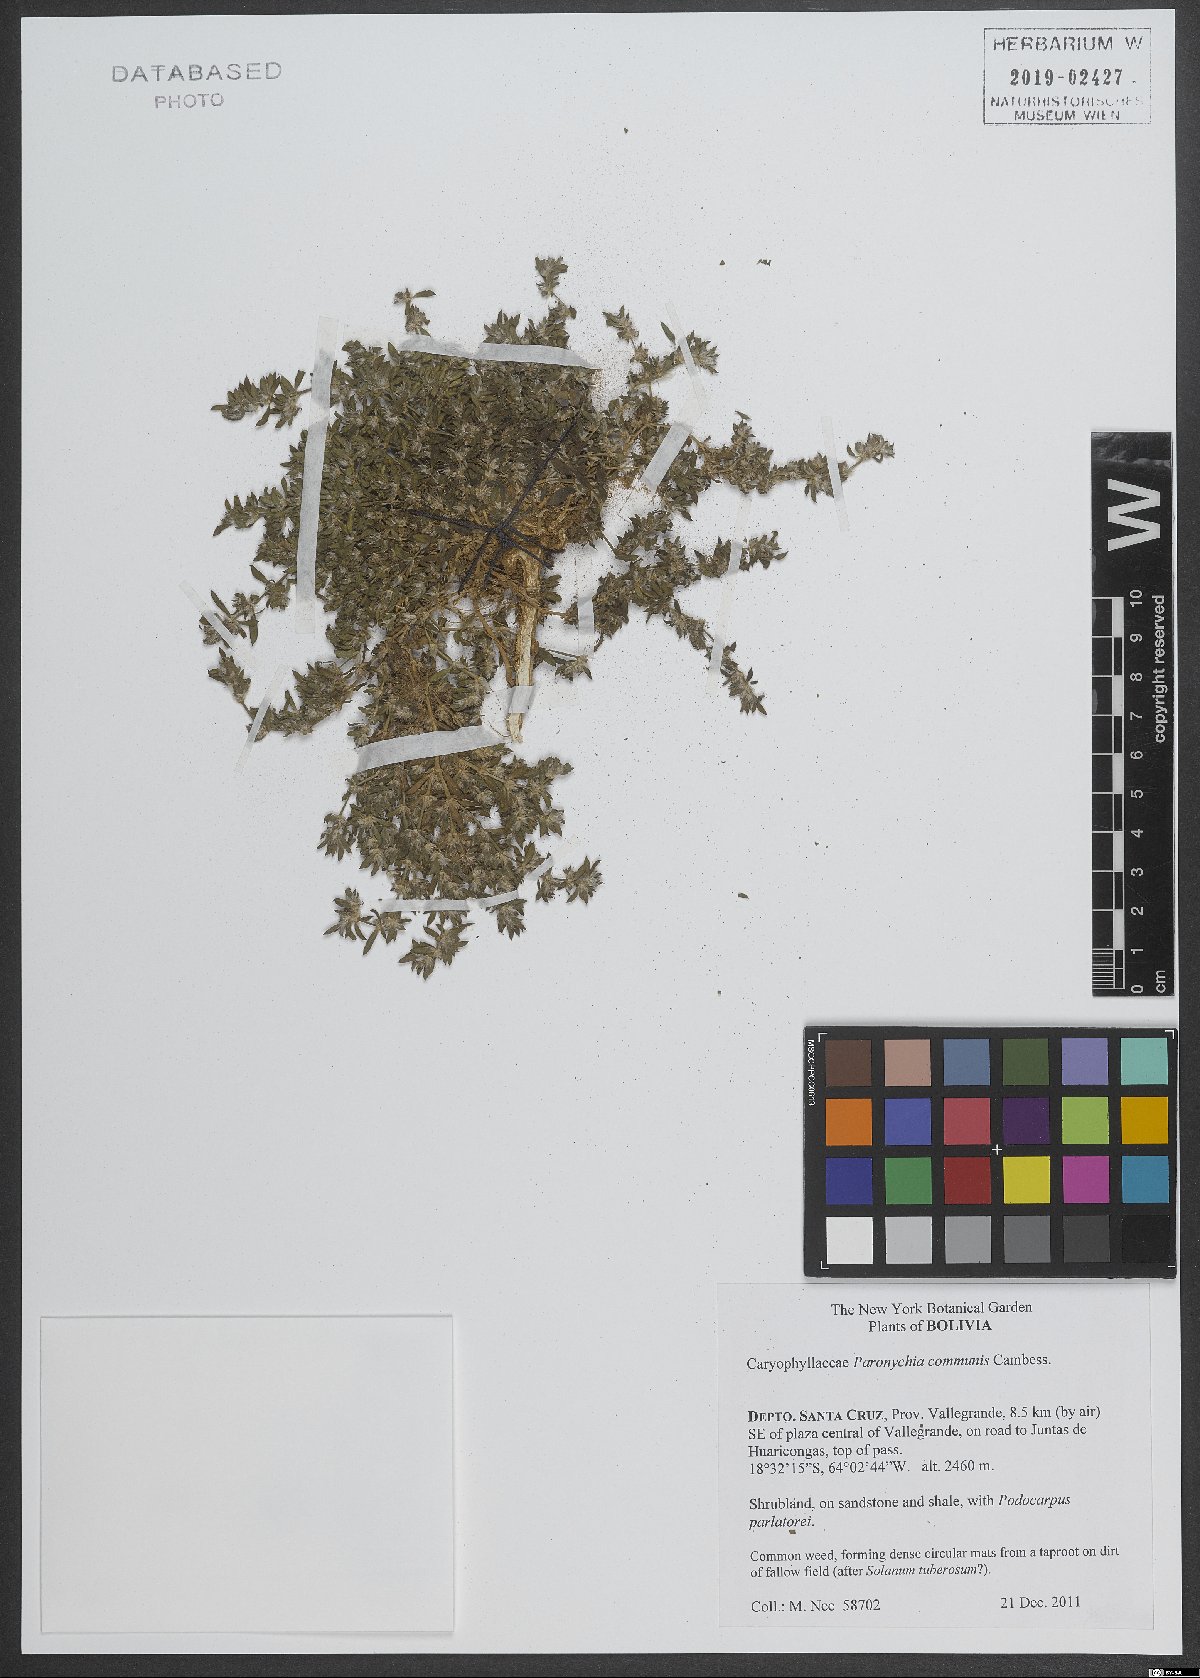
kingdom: Plantae
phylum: Tracheophyta
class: Magnoliopsida
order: Caryophyllales
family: Caryophyllaceae
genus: Paronychia
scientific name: Paronychia communis
